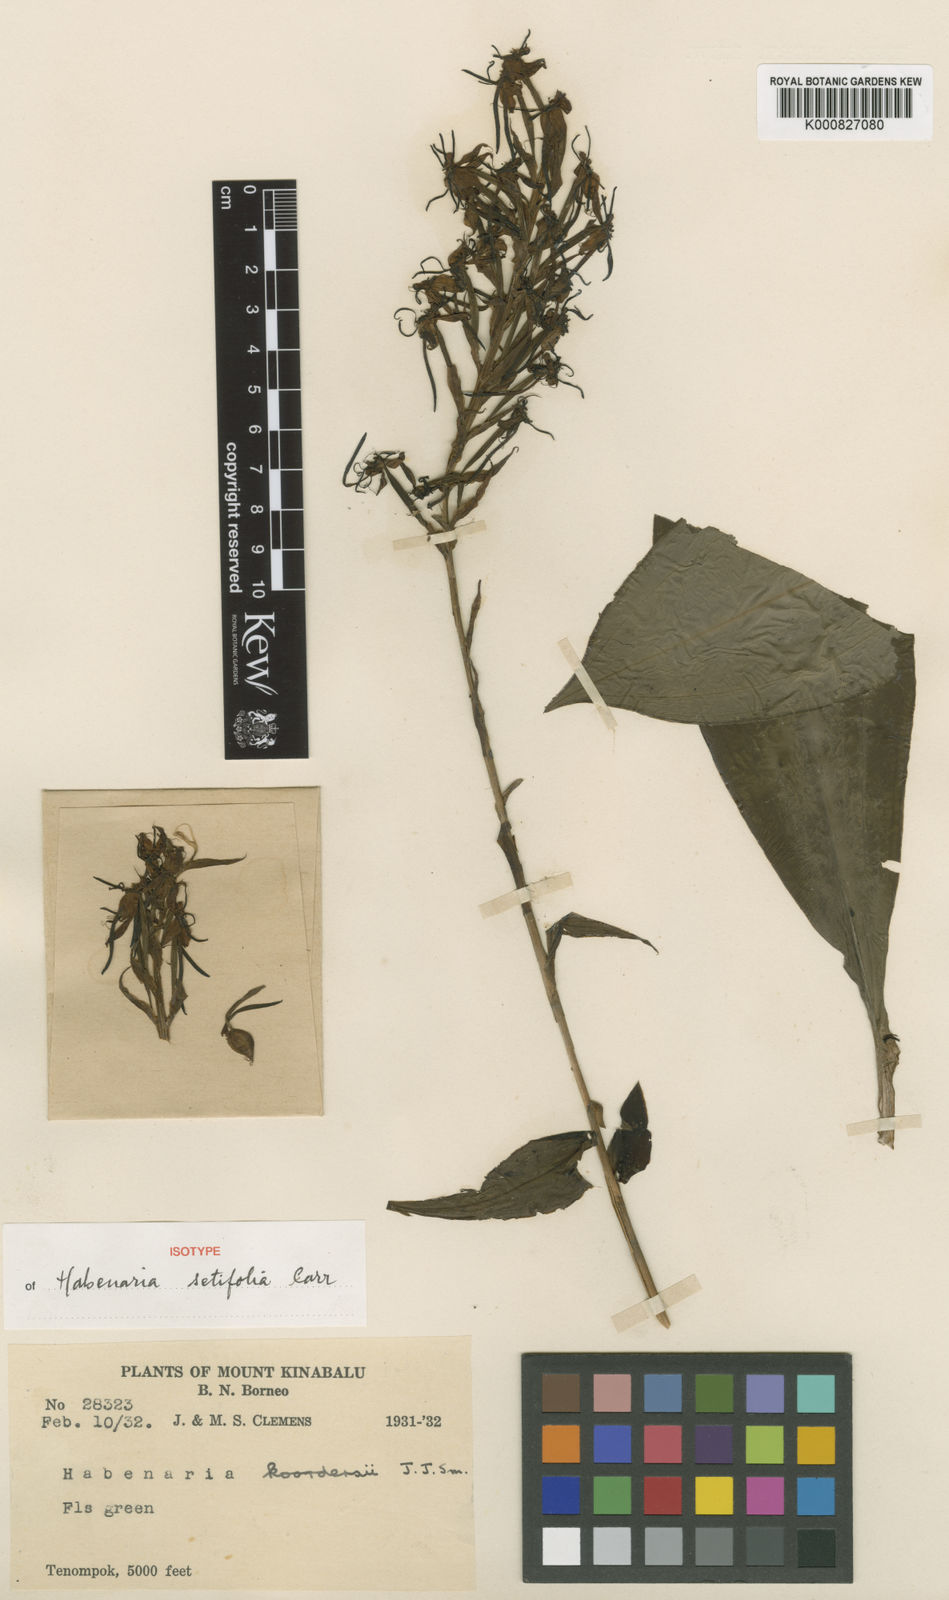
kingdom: Plantae
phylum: Tracheophyta
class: Liliopsida
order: Asparagales
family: Orchidaceae
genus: Habenaria
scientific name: Habenaria setifolia
